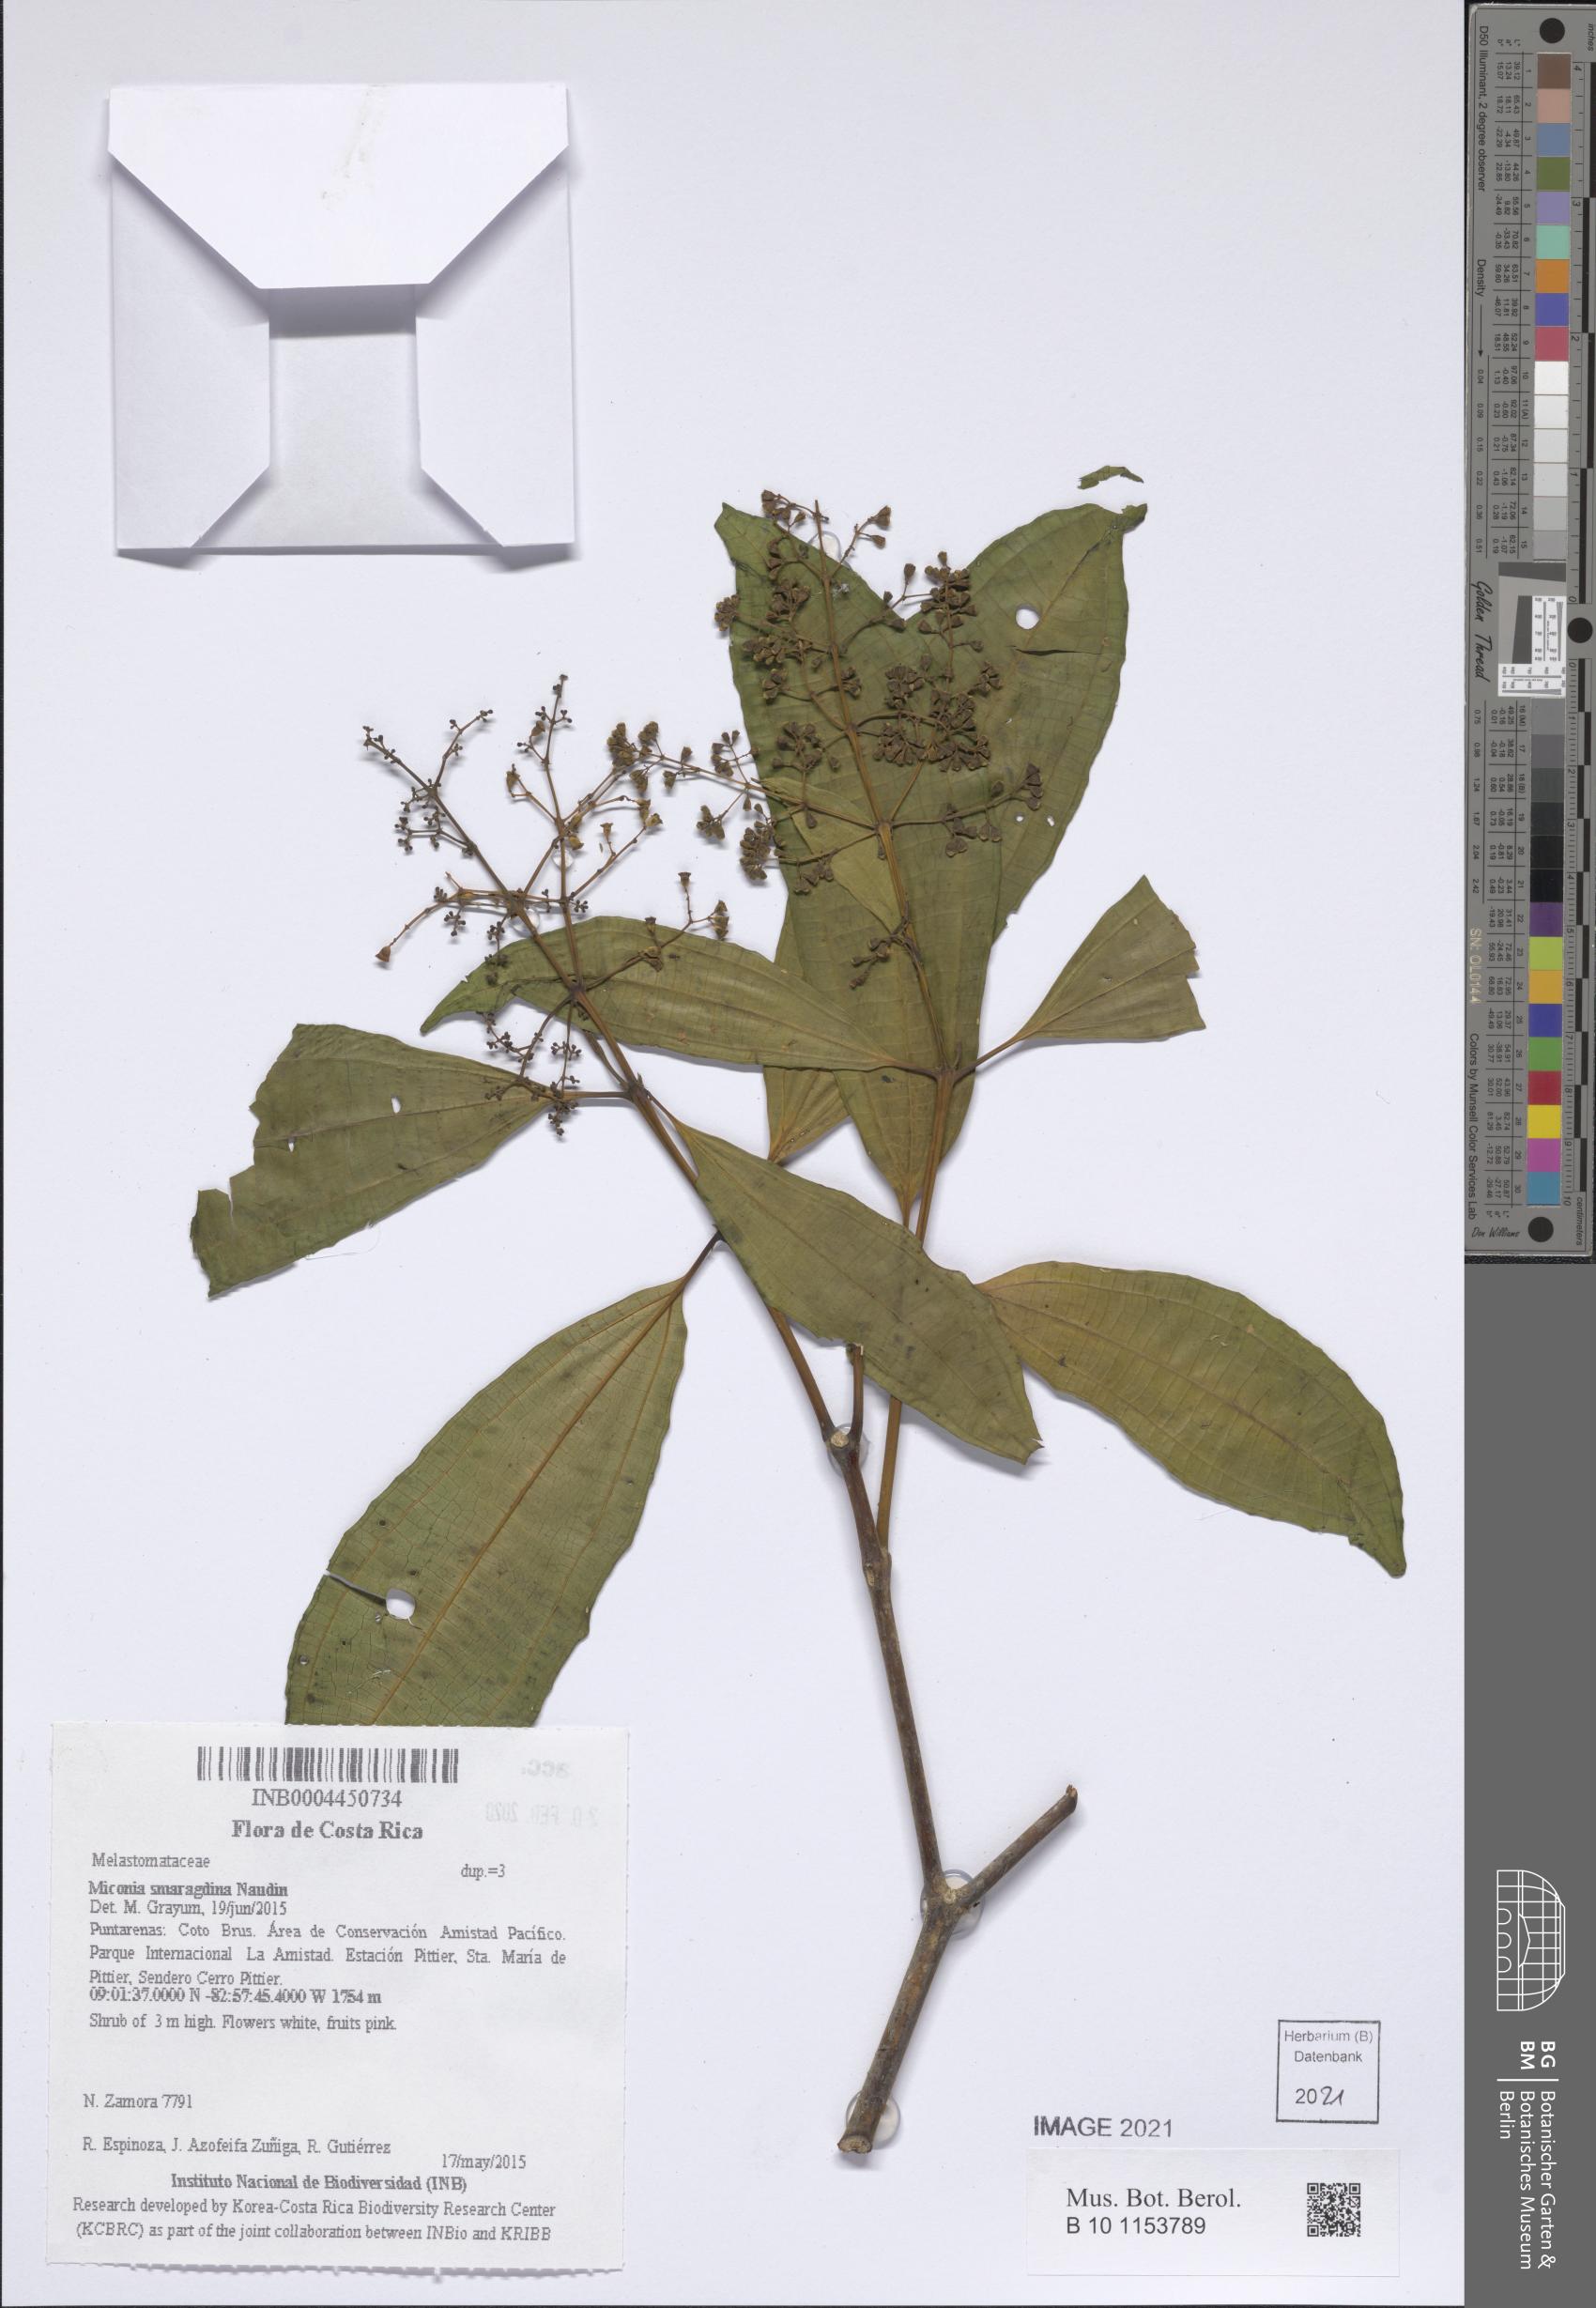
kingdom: Plantae
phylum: Tracheophyta
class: Magnoliopsida
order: Myrtales
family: Melastomataceae
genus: Miconia
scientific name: Miconia smaragdina
